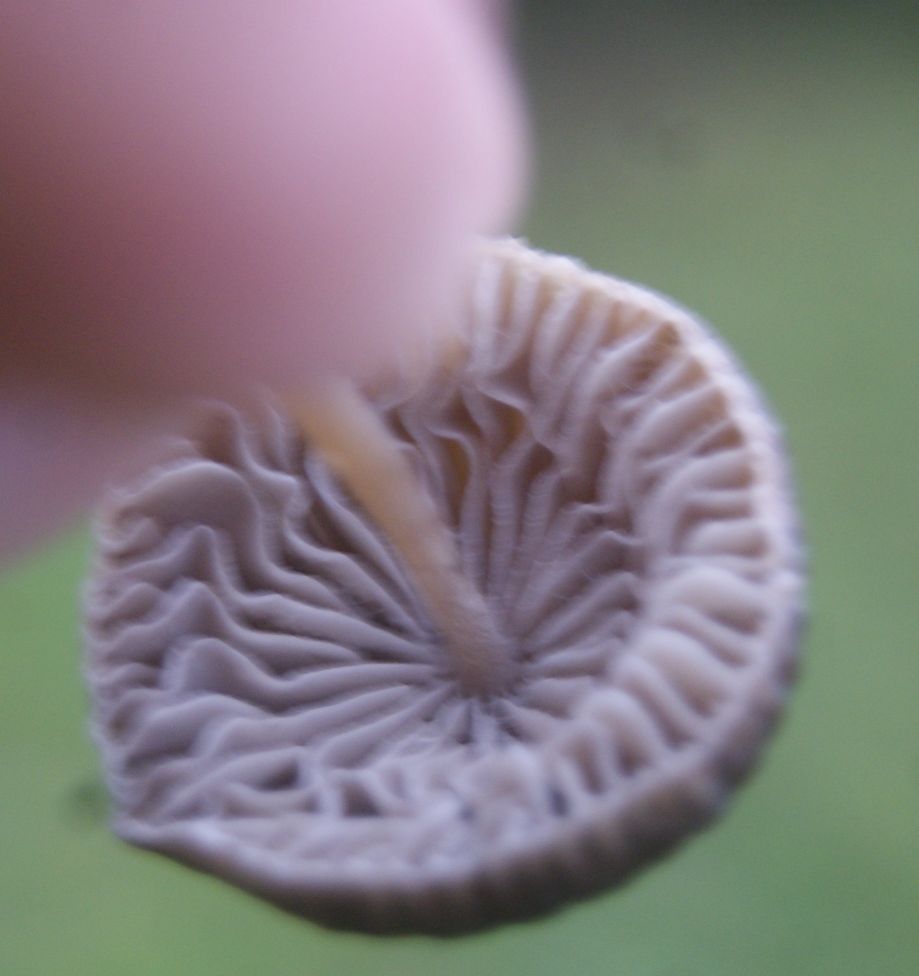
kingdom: Fungi
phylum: Basidiomycota
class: Agaricomycetes
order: Agaricales
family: Mycenaceae
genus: Mycena
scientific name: Mycena filopes
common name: jod-huesvamp
